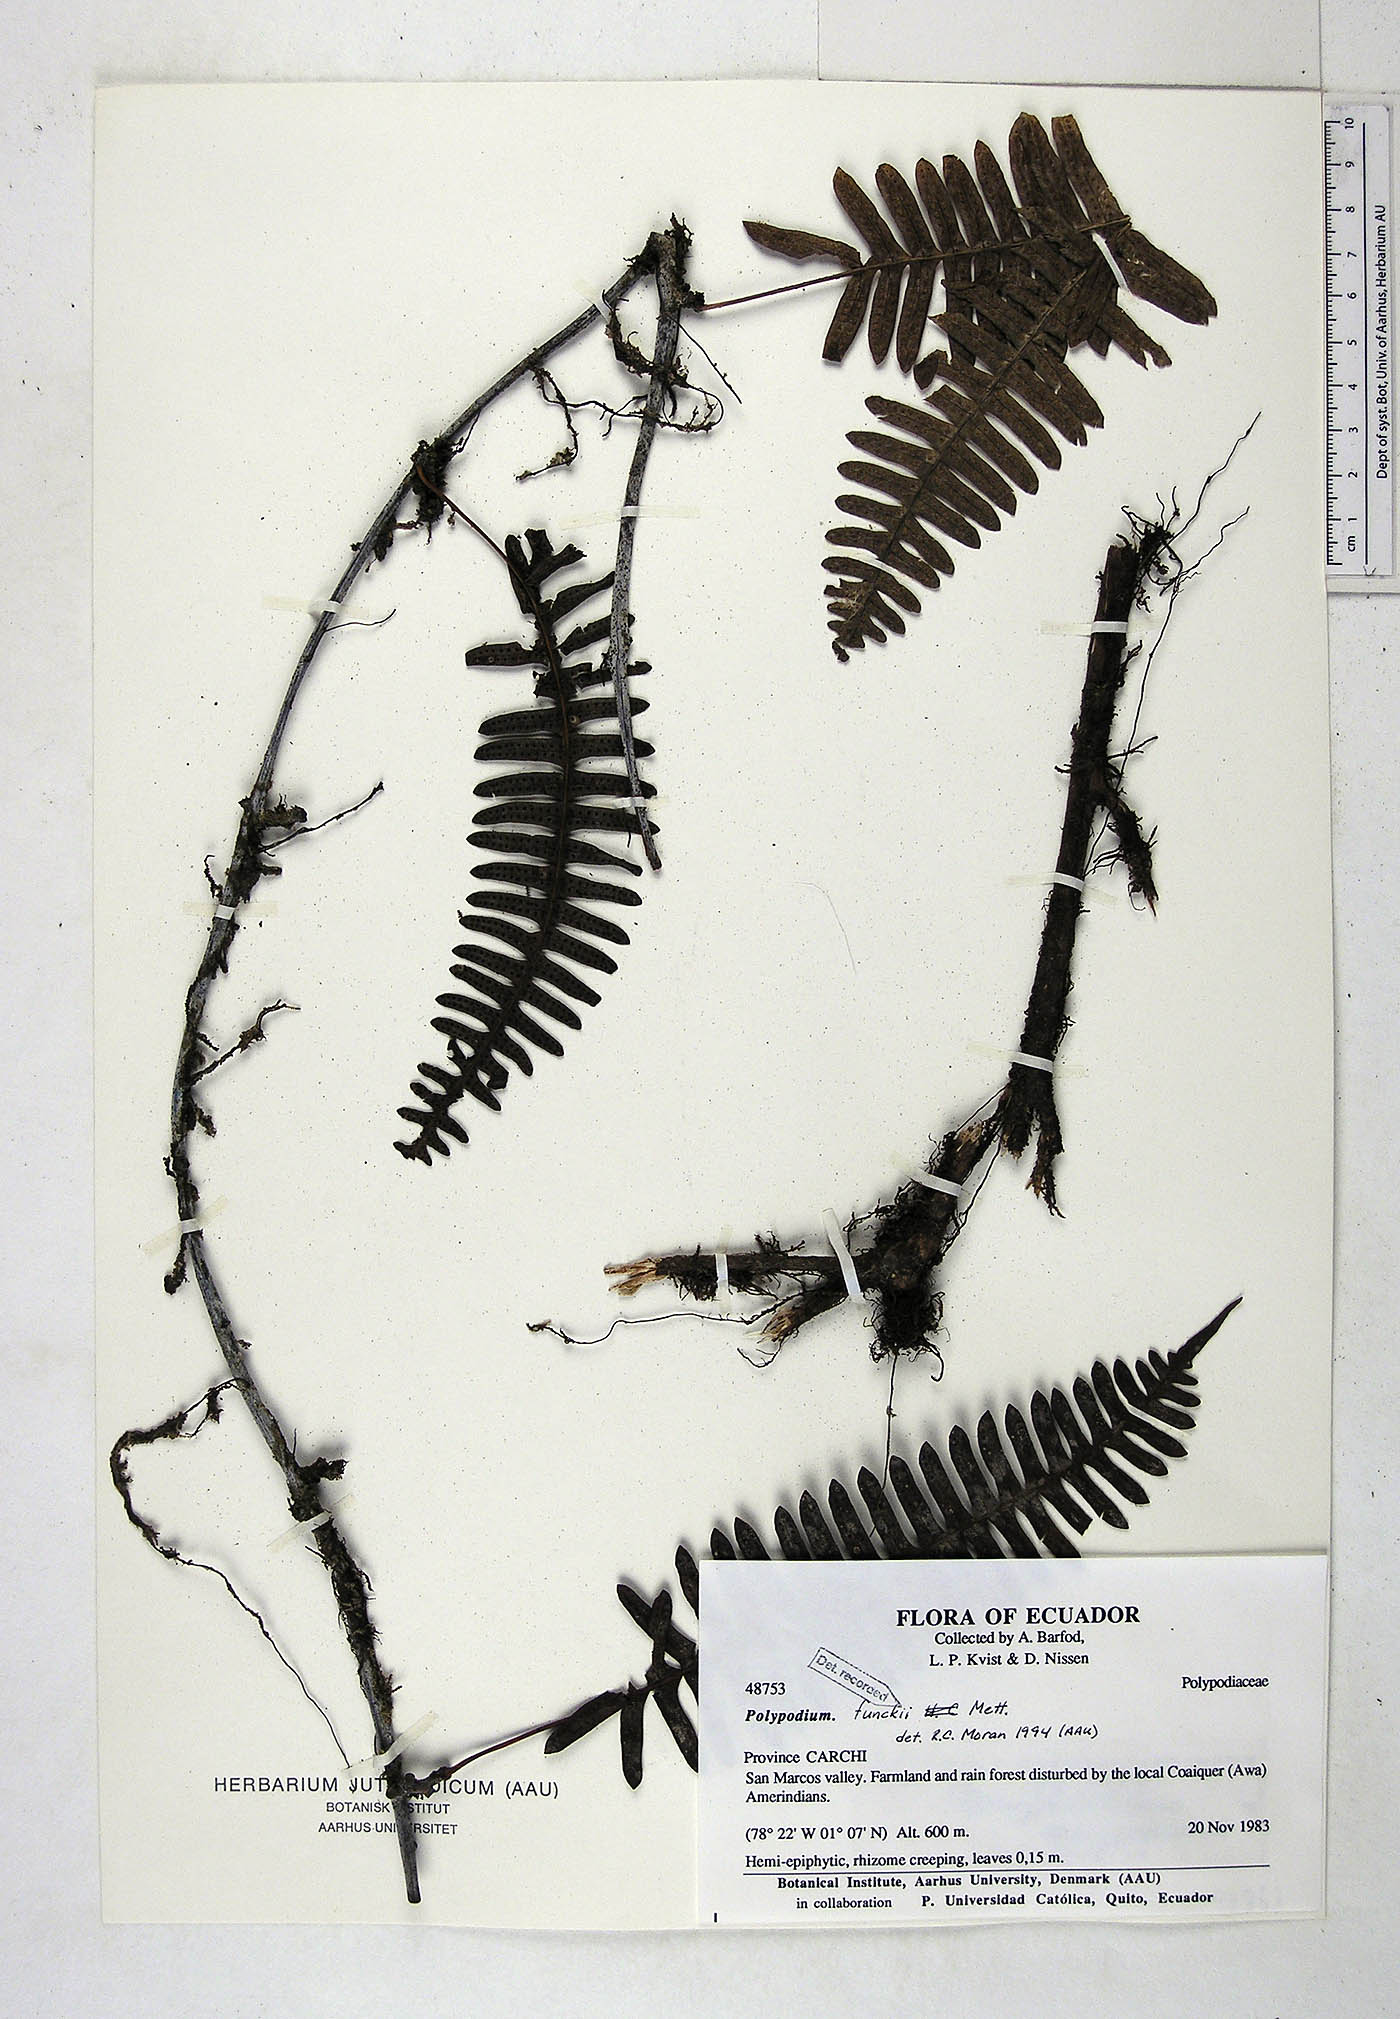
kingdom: Plantae
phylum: Tracheophyta
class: Polypodiopsida
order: Polypodiales
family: Polypodiaceae
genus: Serpocaulon
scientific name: Serpocaulon funckii
